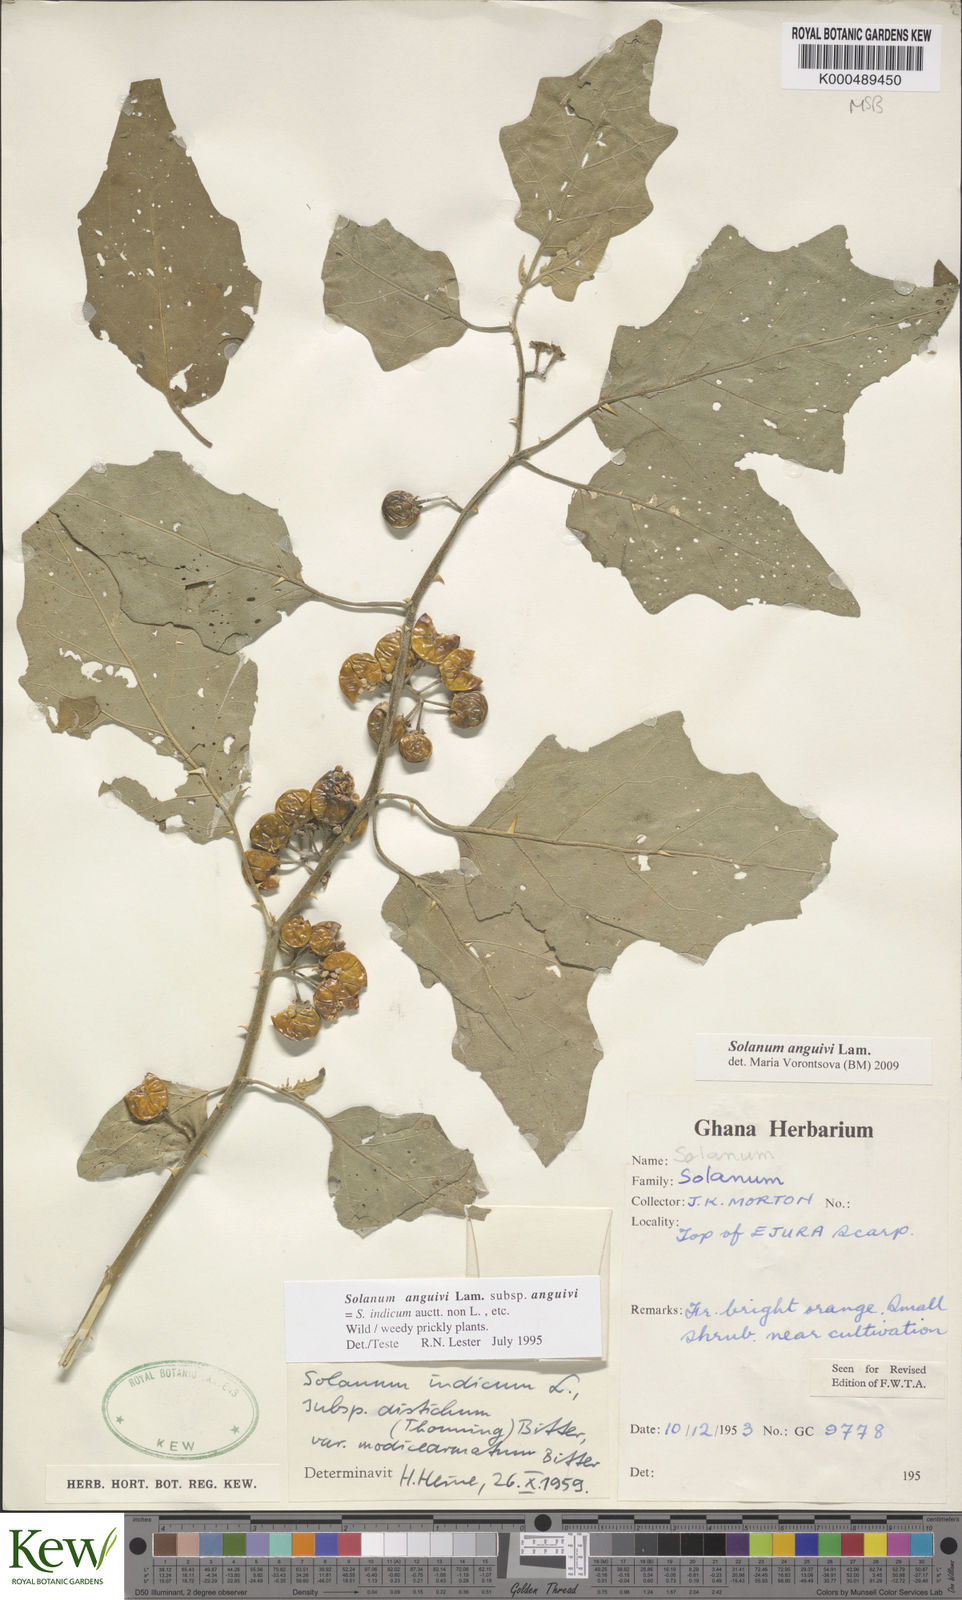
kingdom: Plantae
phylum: Tracheophyta
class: Magnoliopsida
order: Solanales
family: Solanaceae
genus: Solanum
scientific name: Solanum anguivi
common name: Forest bitterberry
